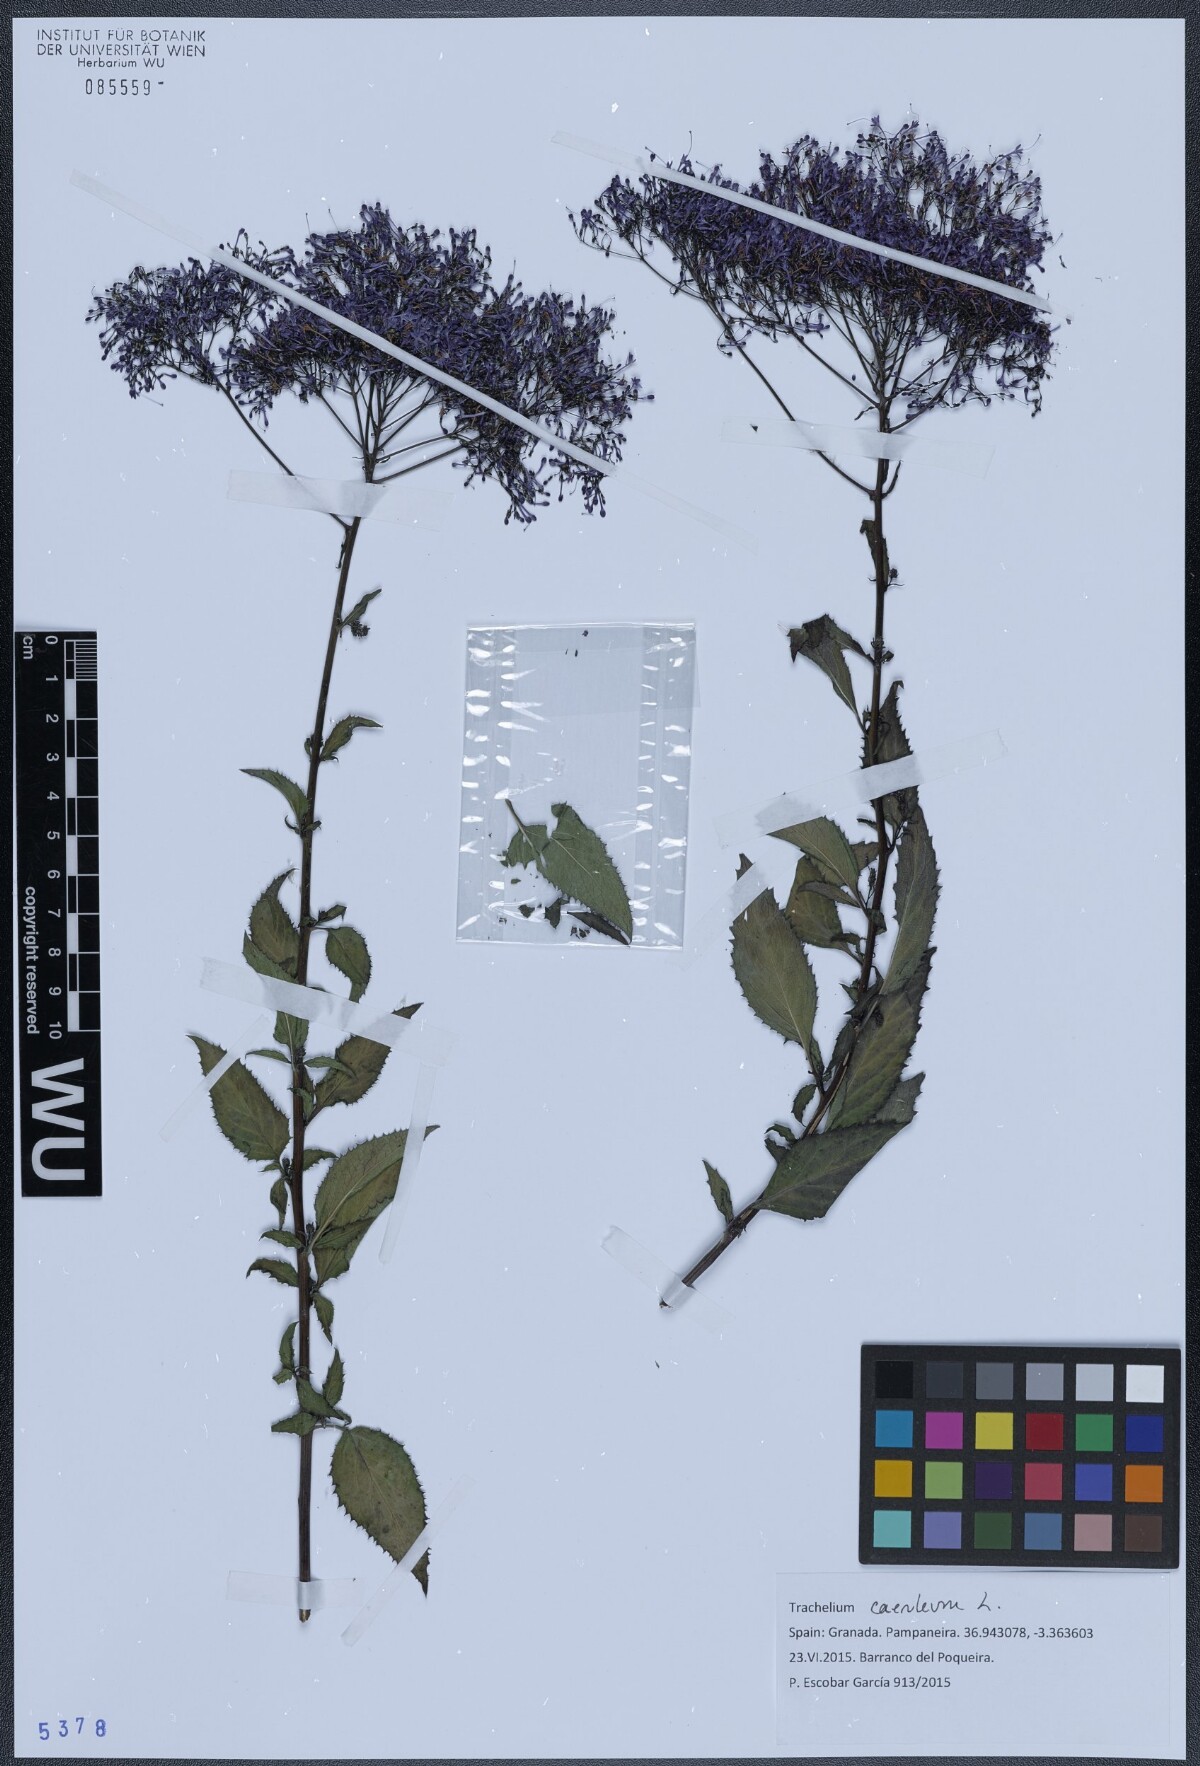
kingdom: Plantae
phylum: Tracheophyta
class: Magnoliopsida
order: Asterales
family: Campanulaceae
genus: Trachelium
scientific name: Trachelium caeruleum
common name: Throatwort
